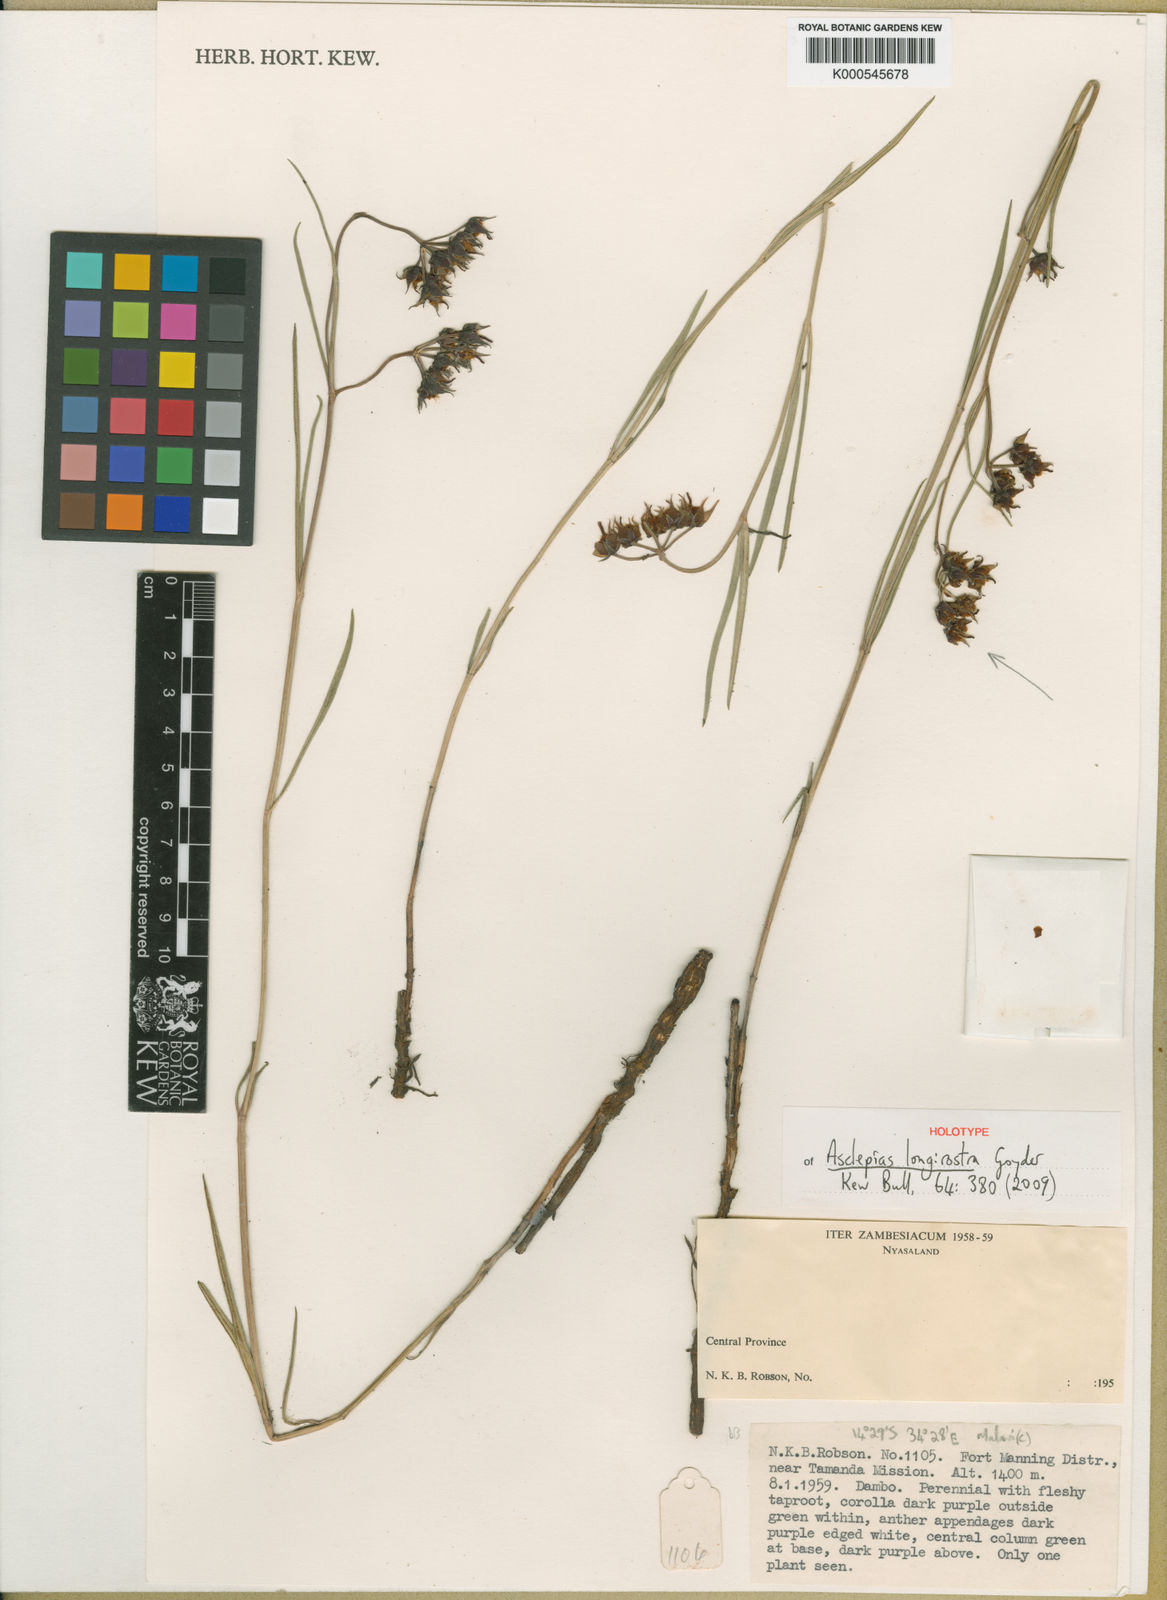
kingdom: Plantae
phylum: Tracheophyta
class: Magnoliopsida
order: Gentianales
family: Apocynaceae
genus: Asclepias
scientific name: Asclepias
